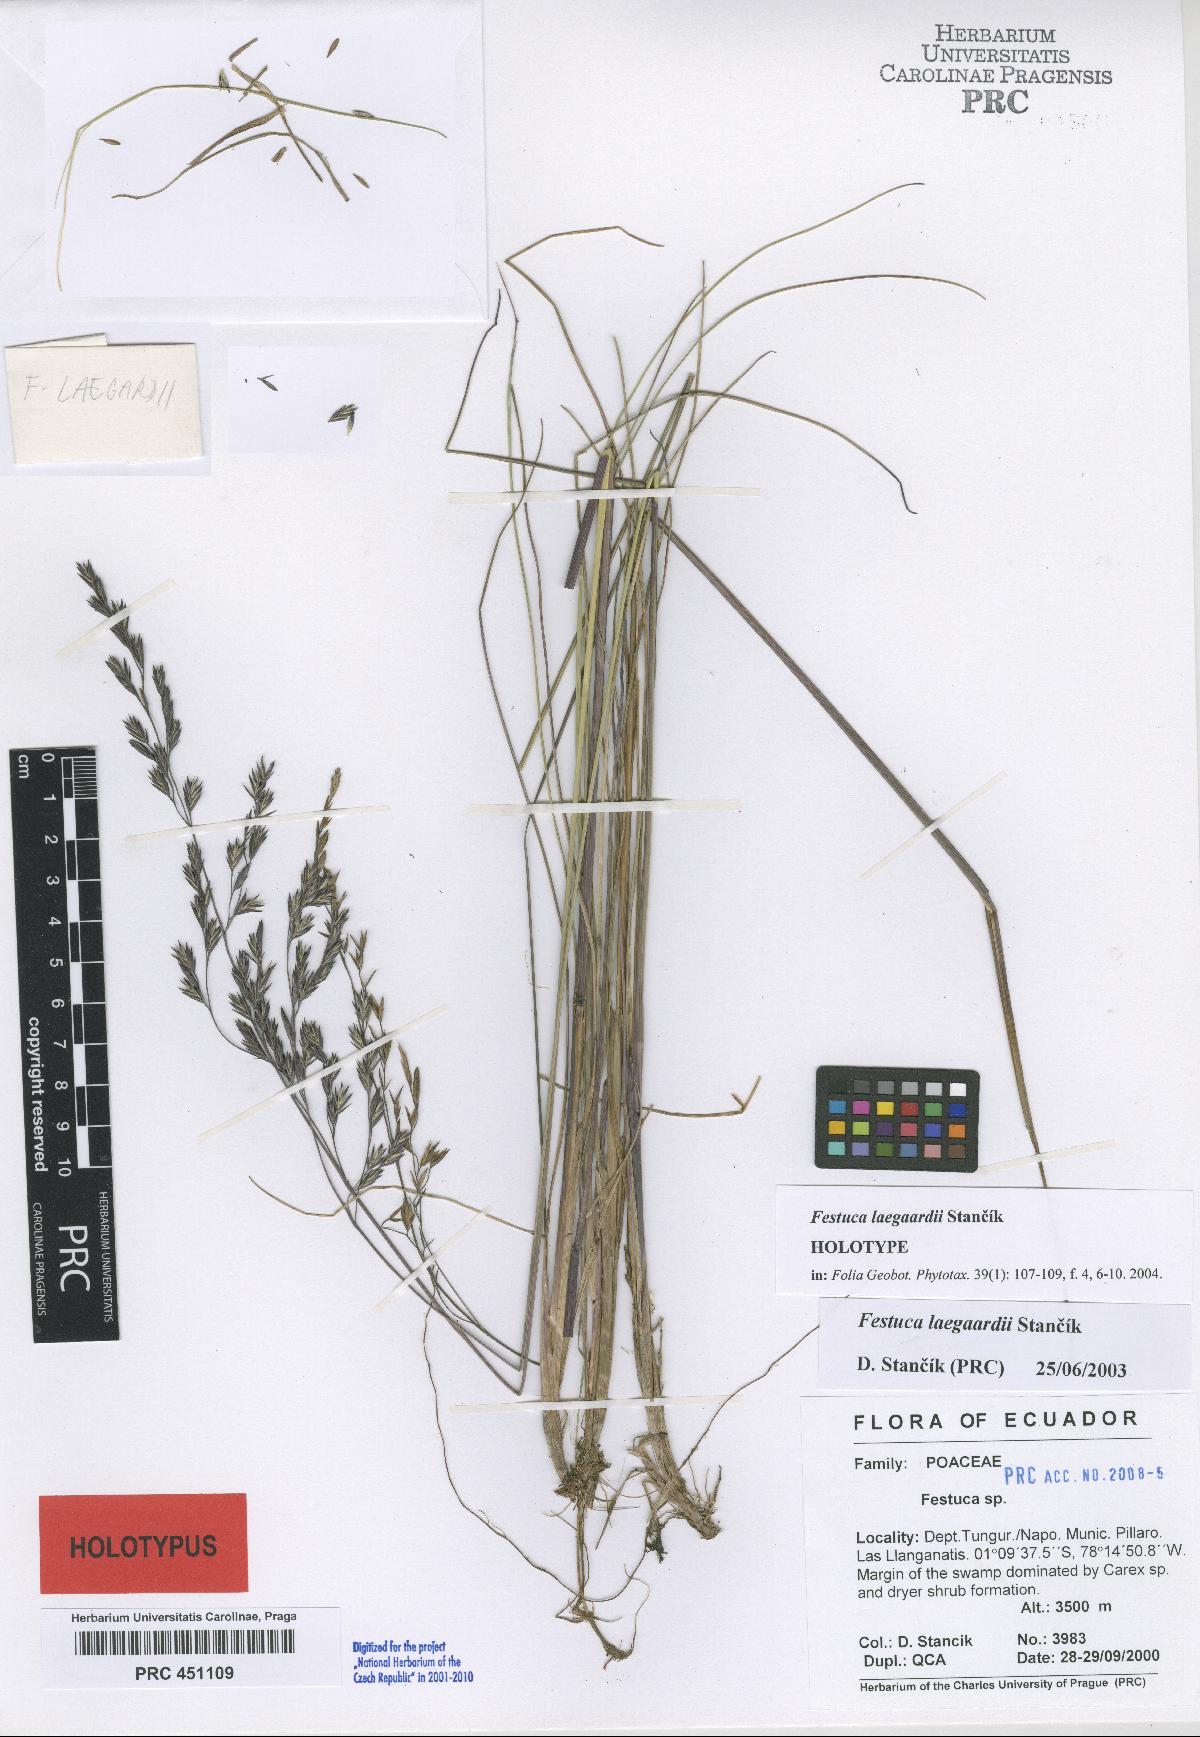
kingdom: Plantae
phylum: Tracheophyta
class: Liliopsida
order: Poales
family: Poaceae
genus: Festuca
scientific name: Festuca laegaardii
